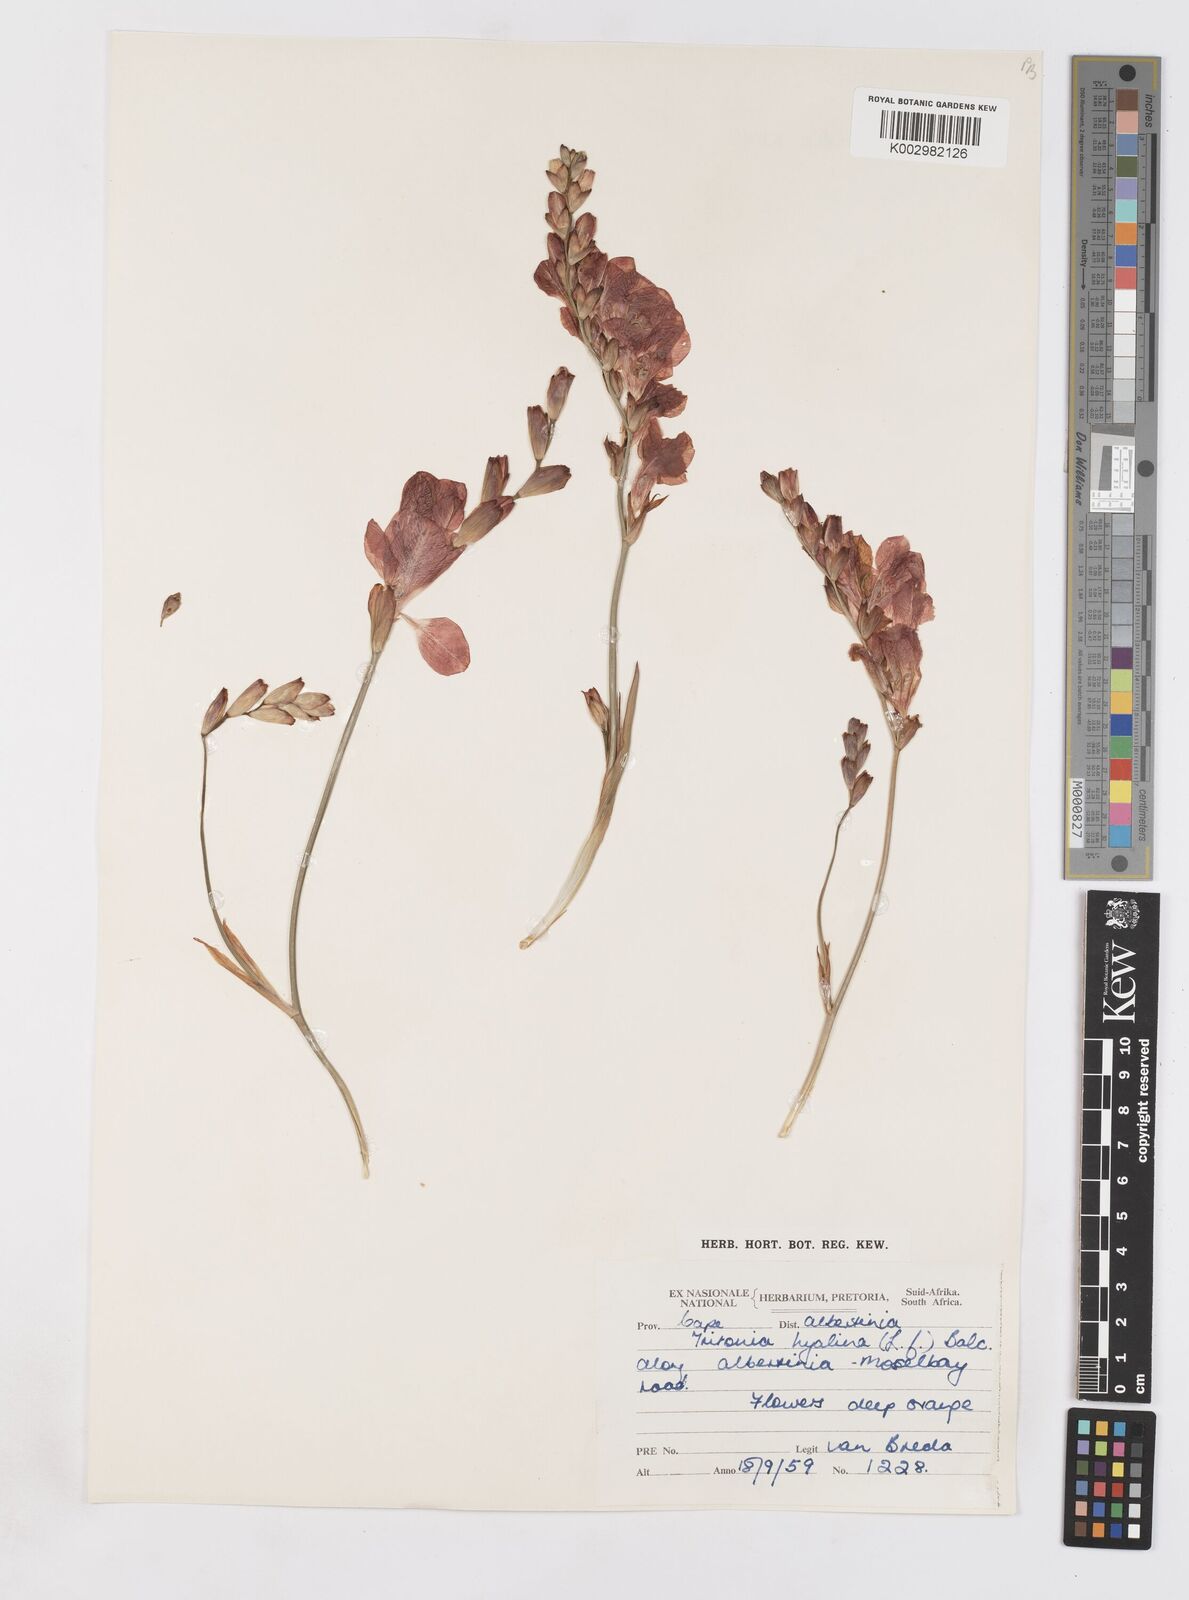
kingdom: Plantae
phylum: Tracheophyta
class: Liliopsida
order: Asparagales
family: Iridaceae
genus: Tritonia
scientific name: Tritonia crocata
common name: Flame-freesia
